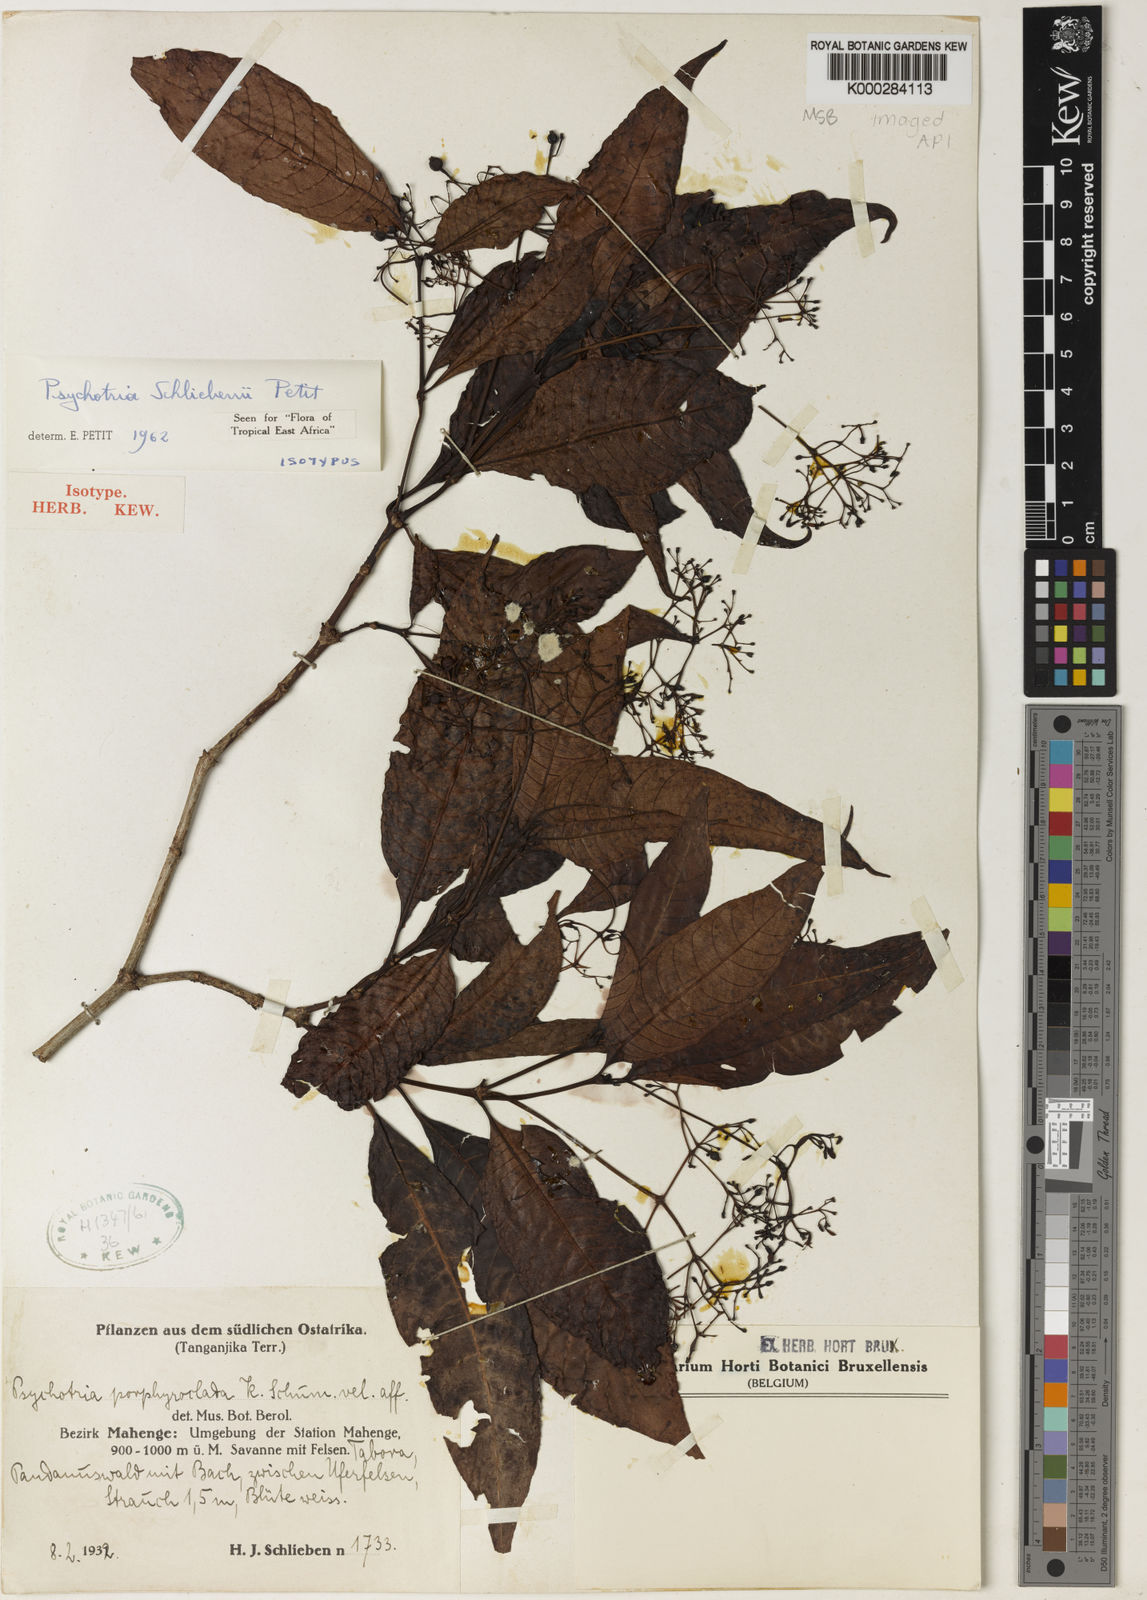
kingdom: Plantae
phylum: Tracheophyta
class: Magnoliopsida
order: Gentianales
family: Rubiaceae
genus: Psychotria
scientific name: Psychotria schliebenii
